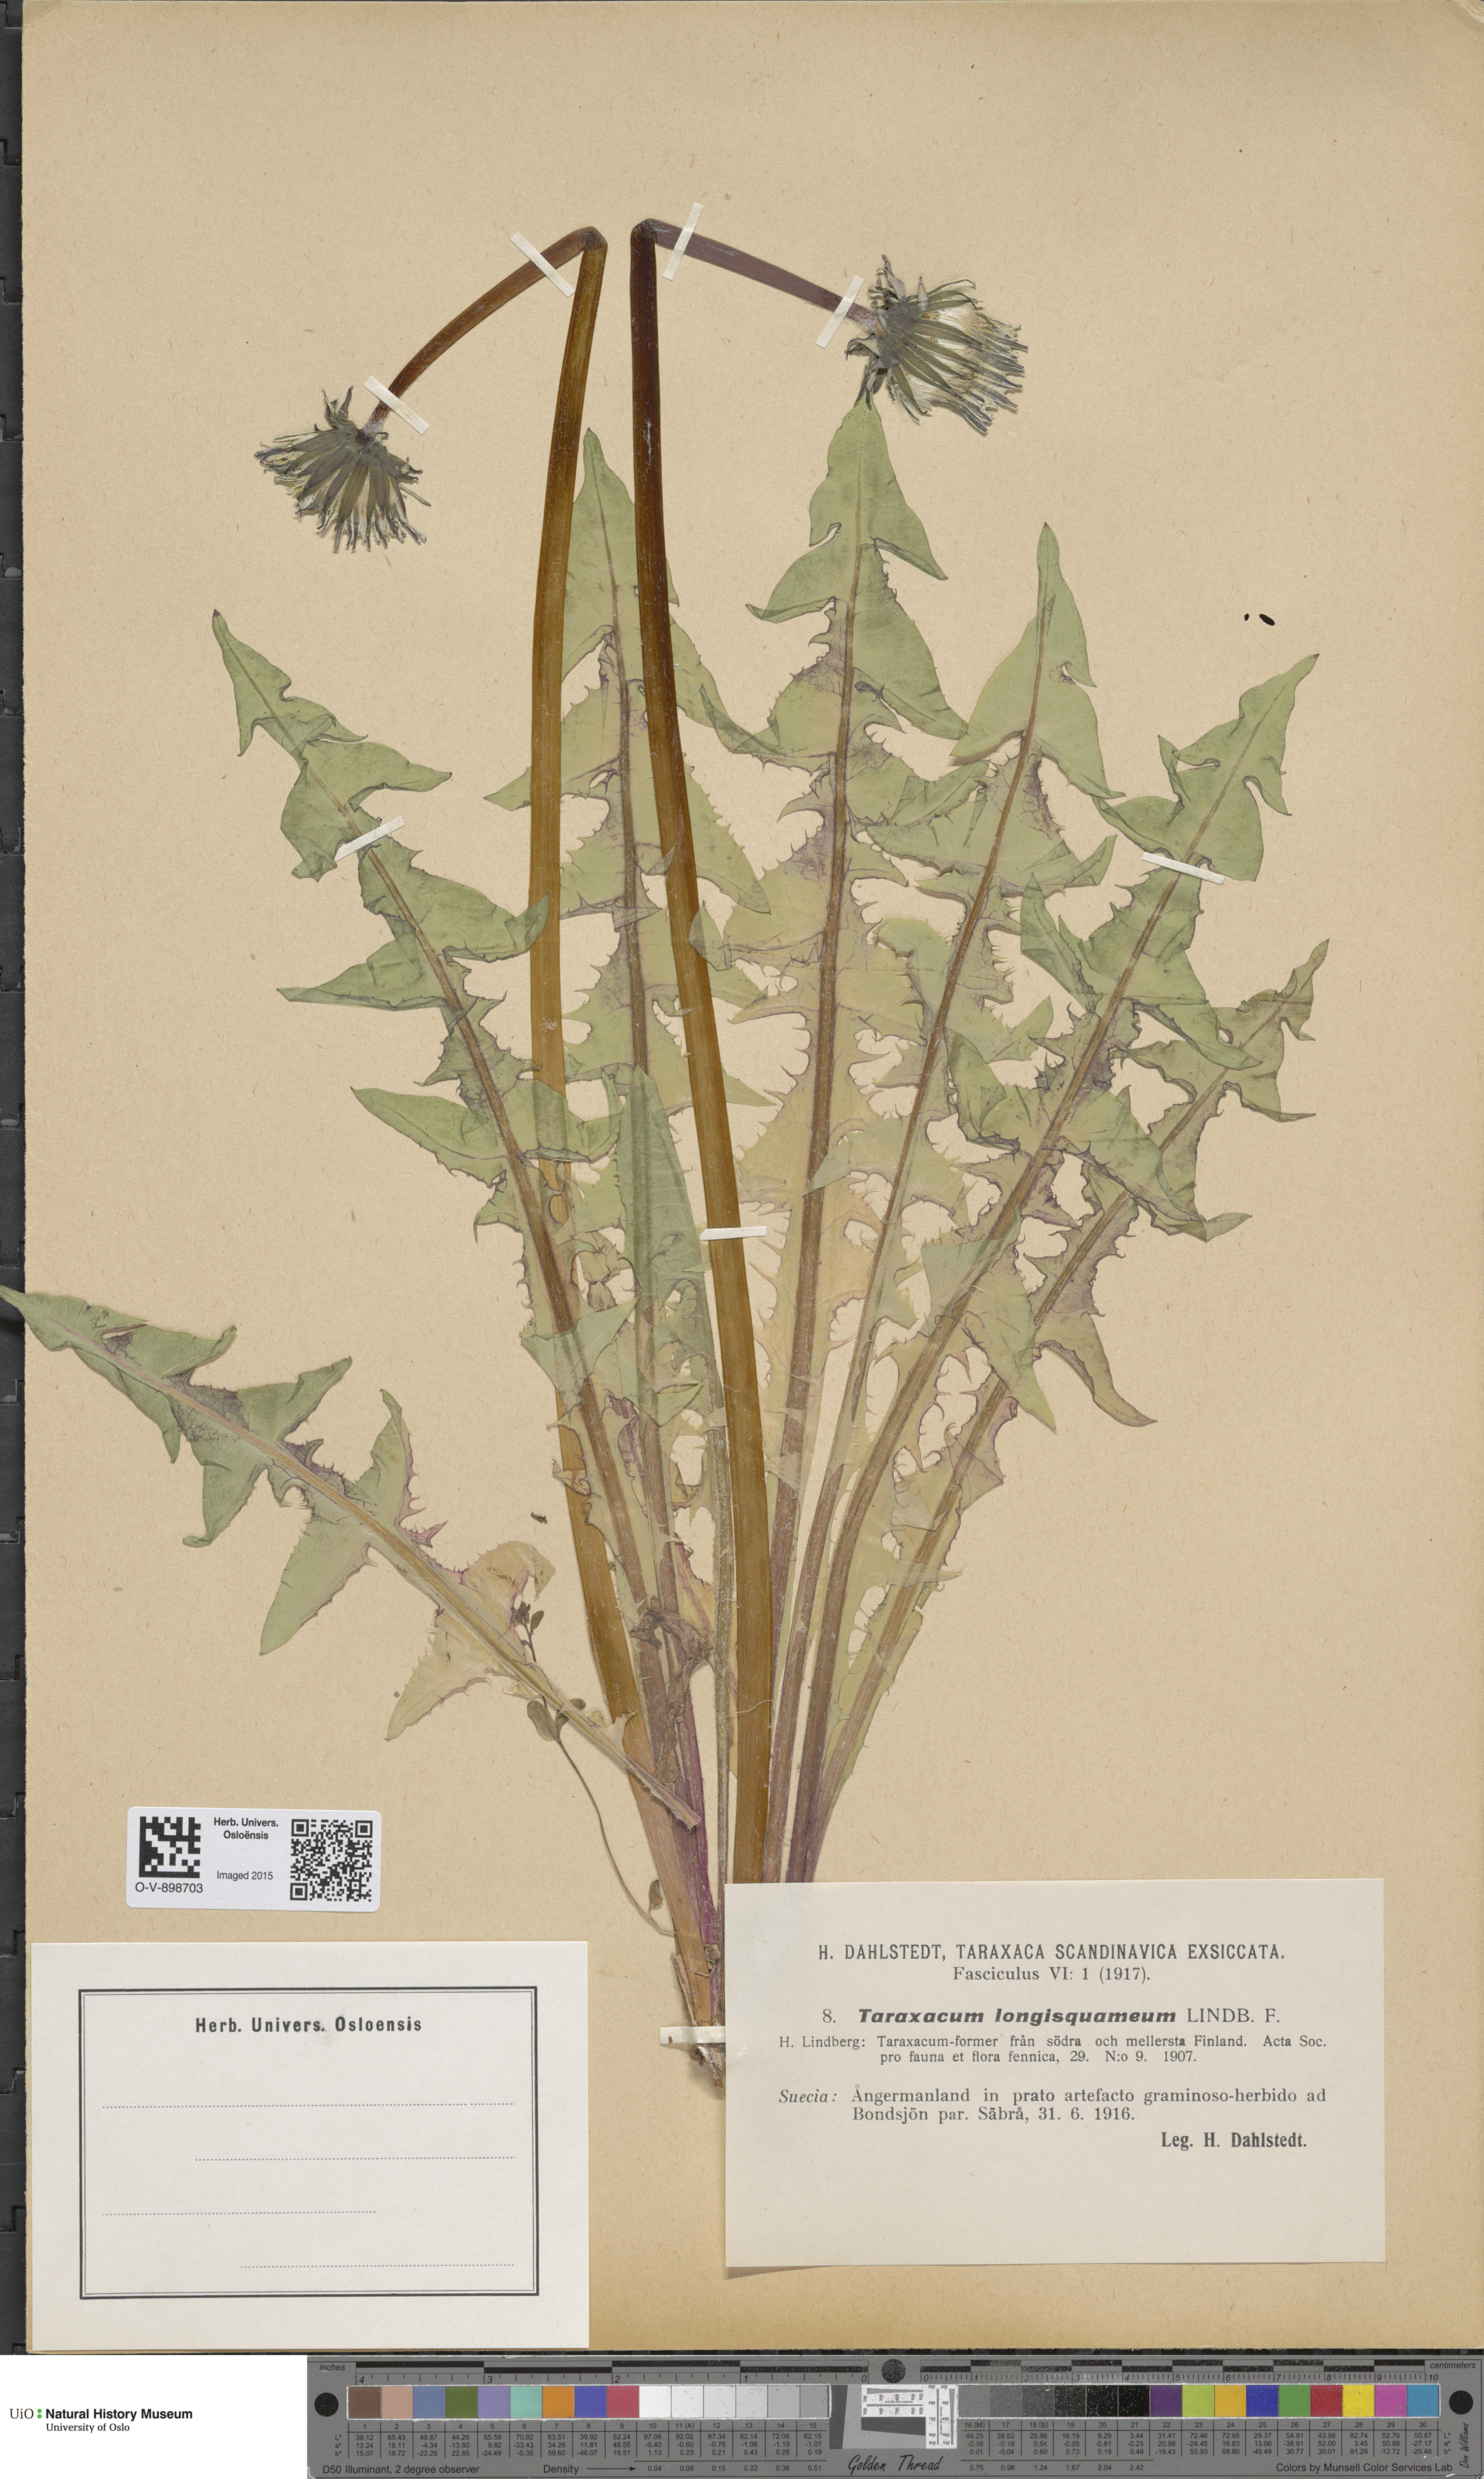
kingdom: Plantae
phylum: Tracheophyta
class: Magnoliopsida
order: Asterales
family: Asteraceae
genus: Taraxacum
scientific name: Taraxacum longisquameum
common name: Elongate-bracted dandelion
